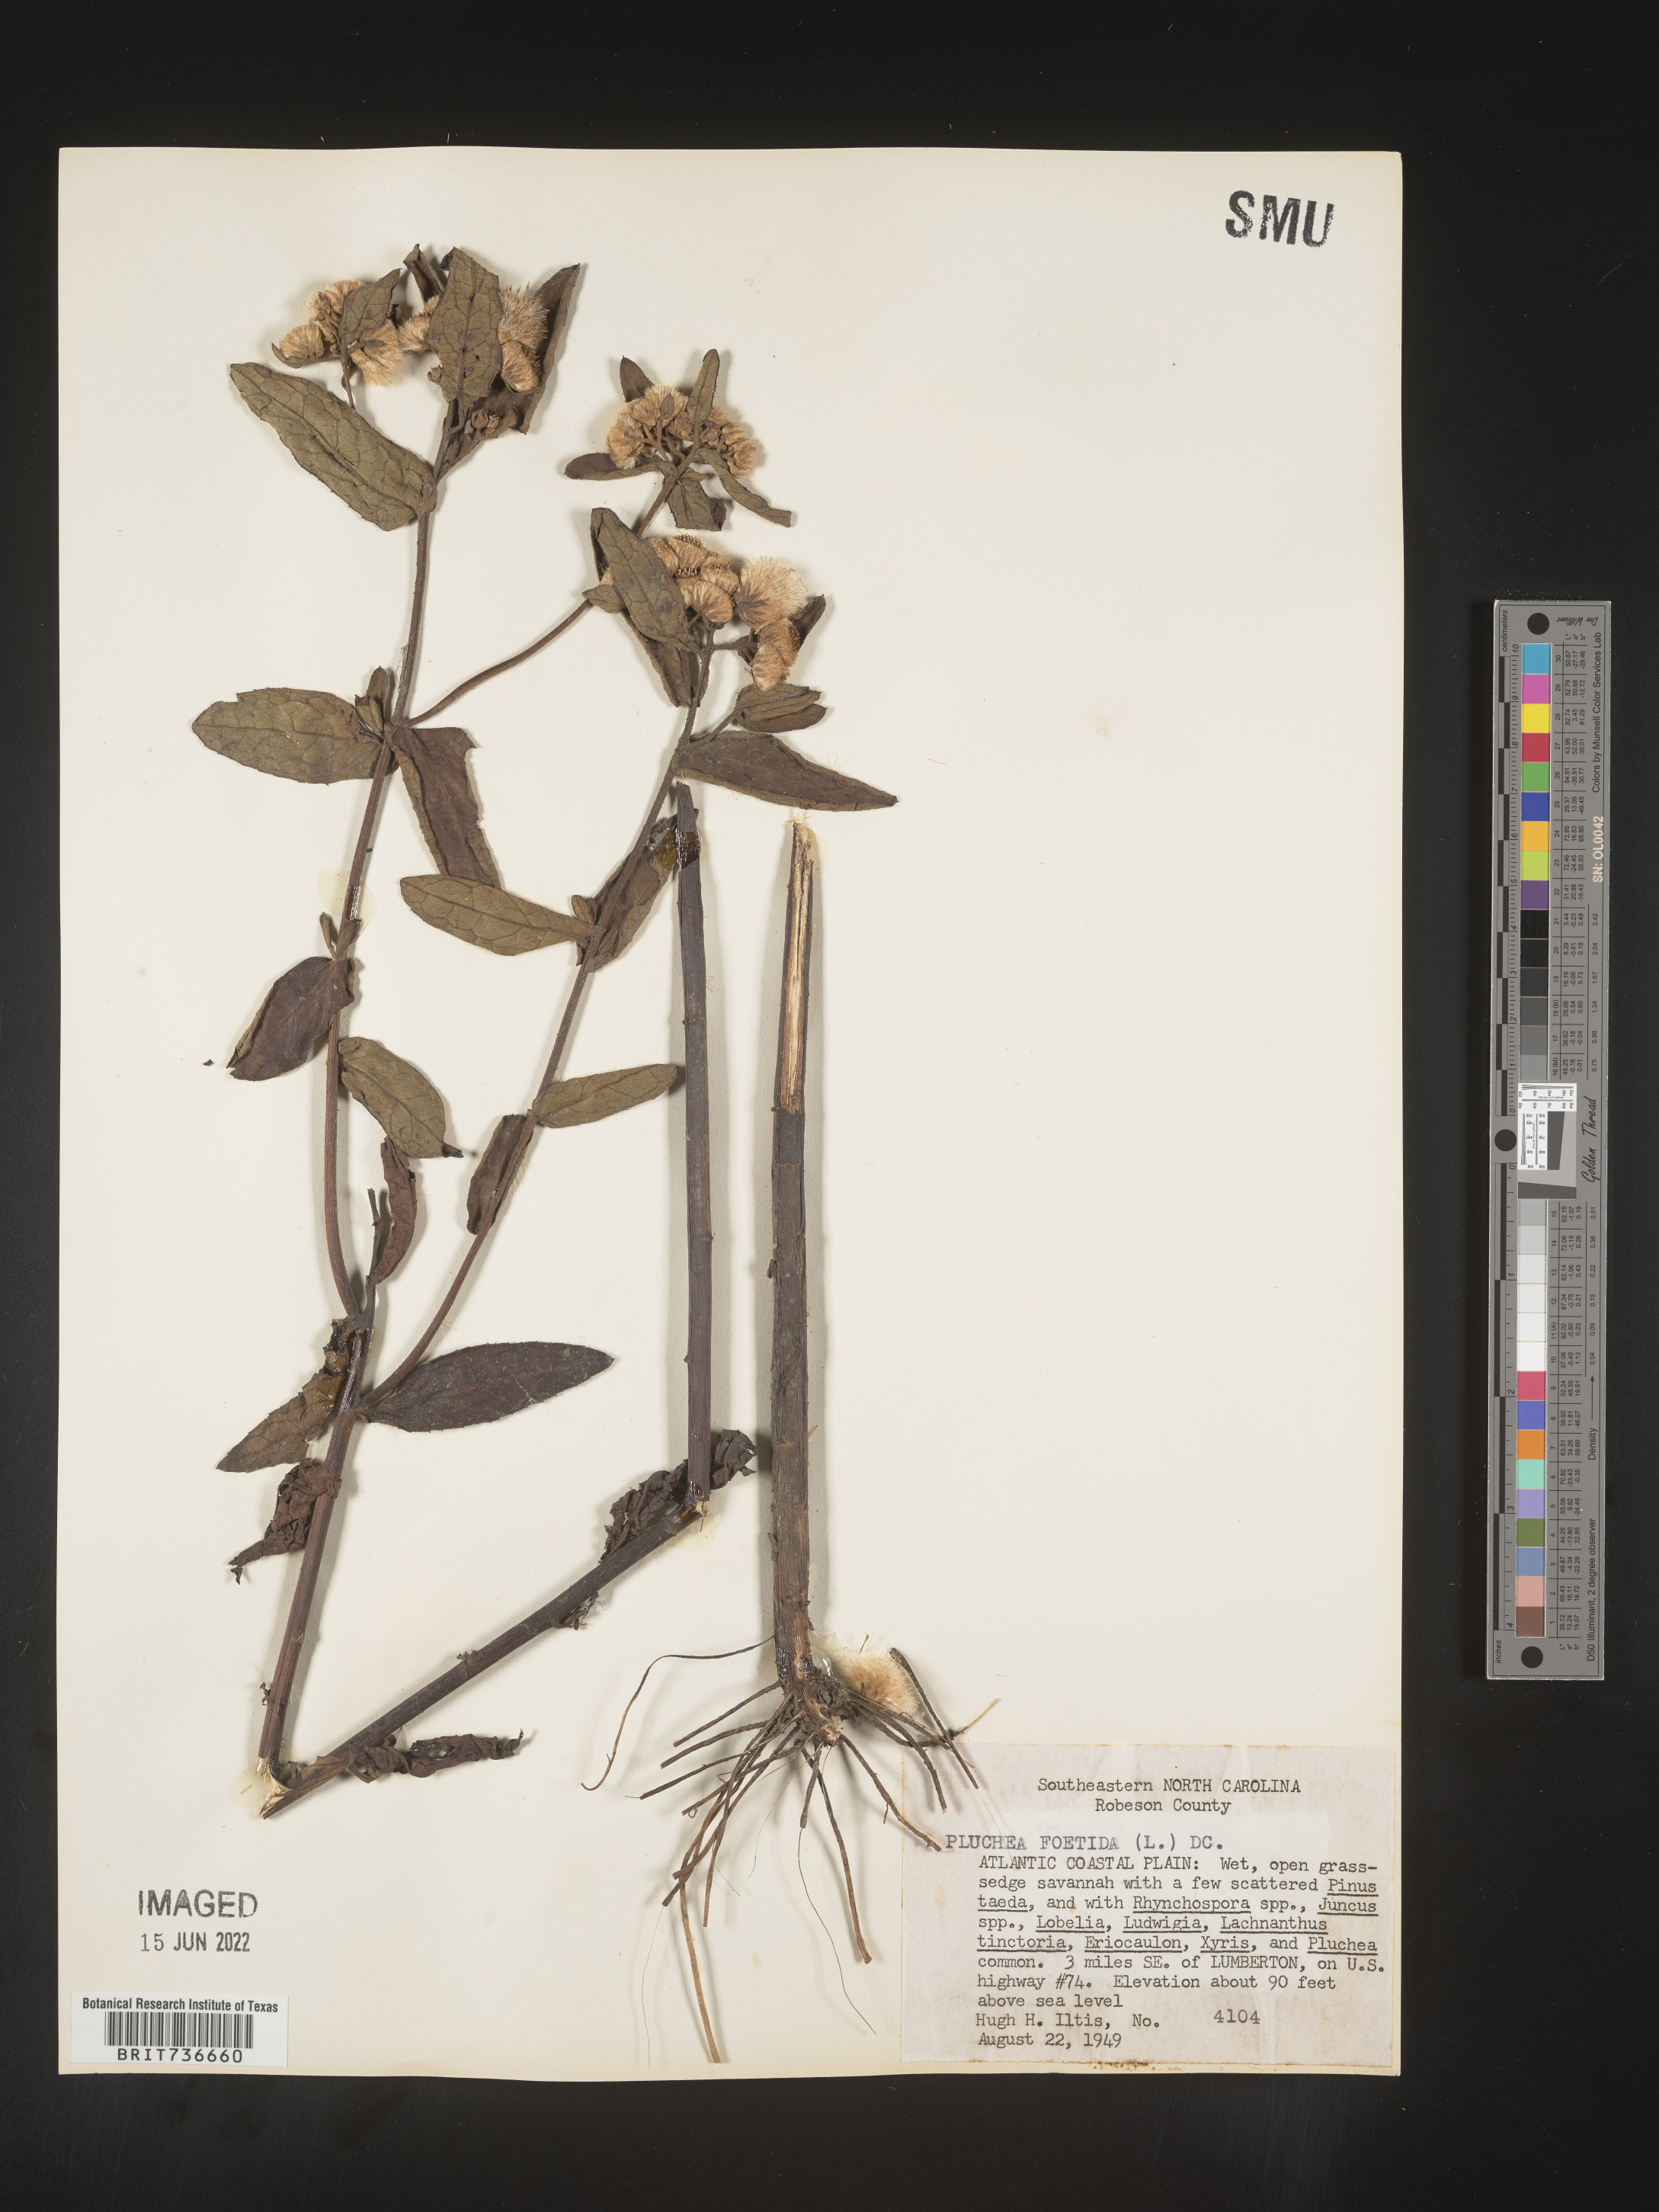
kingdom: Plantae
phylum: Tracheophyta
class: Magnoliopsida
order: Asterales
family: Asteraceae
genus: Pluchea
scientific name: Pluchea foetida
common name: Stinking camphorweed
